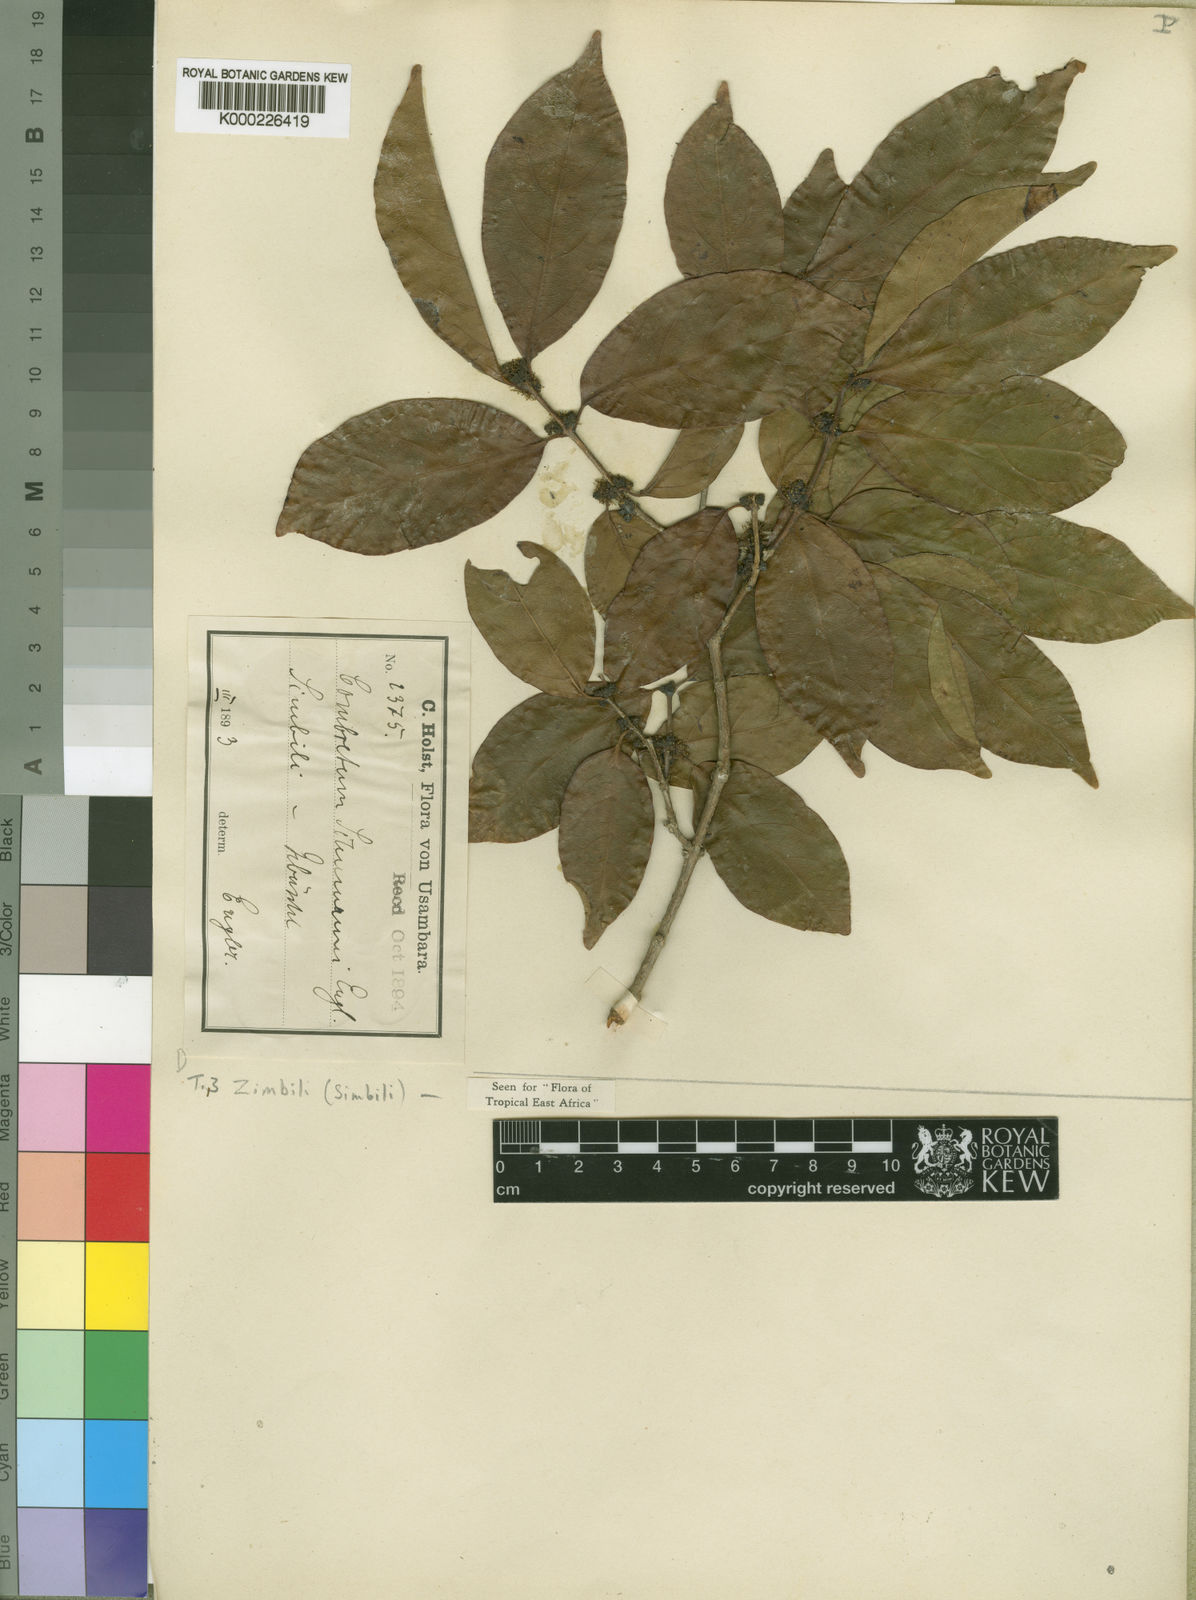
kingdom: Plantae
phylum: Tracheophyta
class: Magnoliopsida
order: Myrtales
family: Combretaceae
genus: Combretum
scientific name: Combretum schumannii
